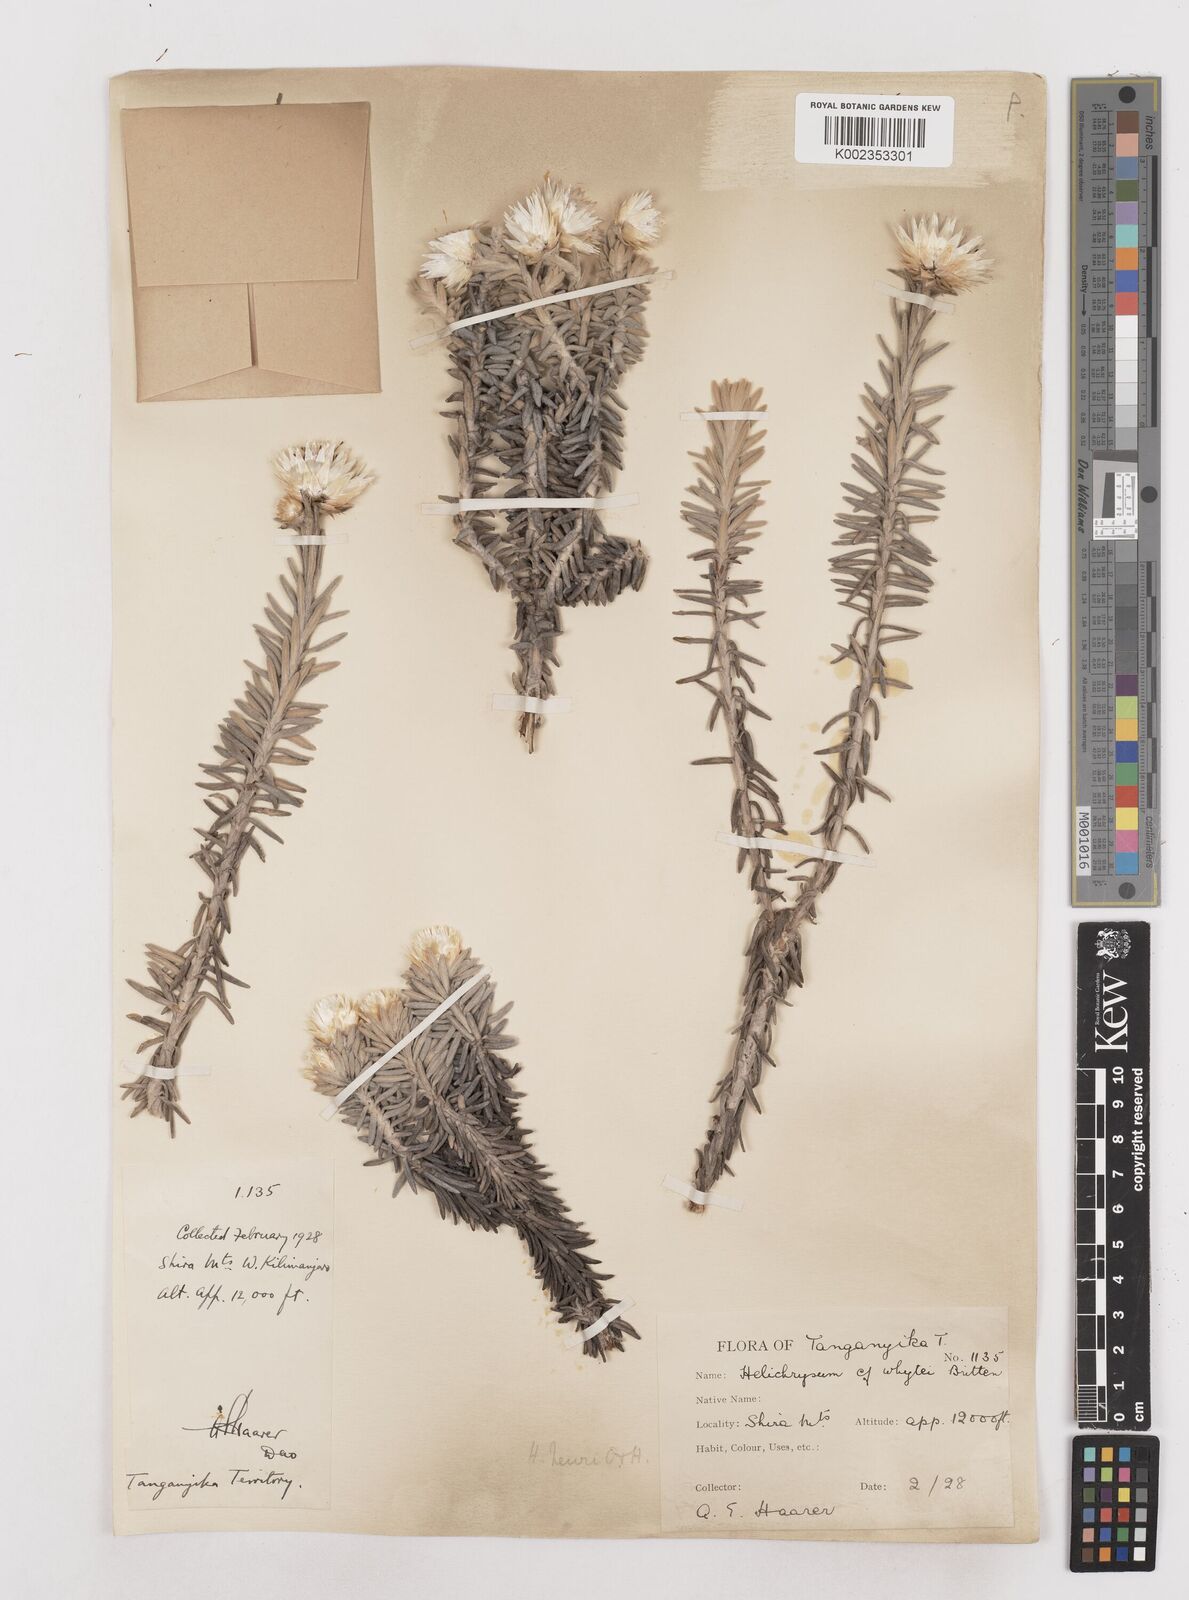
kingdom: Plantae
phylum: Tracheophyta
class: Magnoliopsida
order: Asterales
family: Asteraceae
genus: Helichrysum
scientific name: Helichrysum newii
